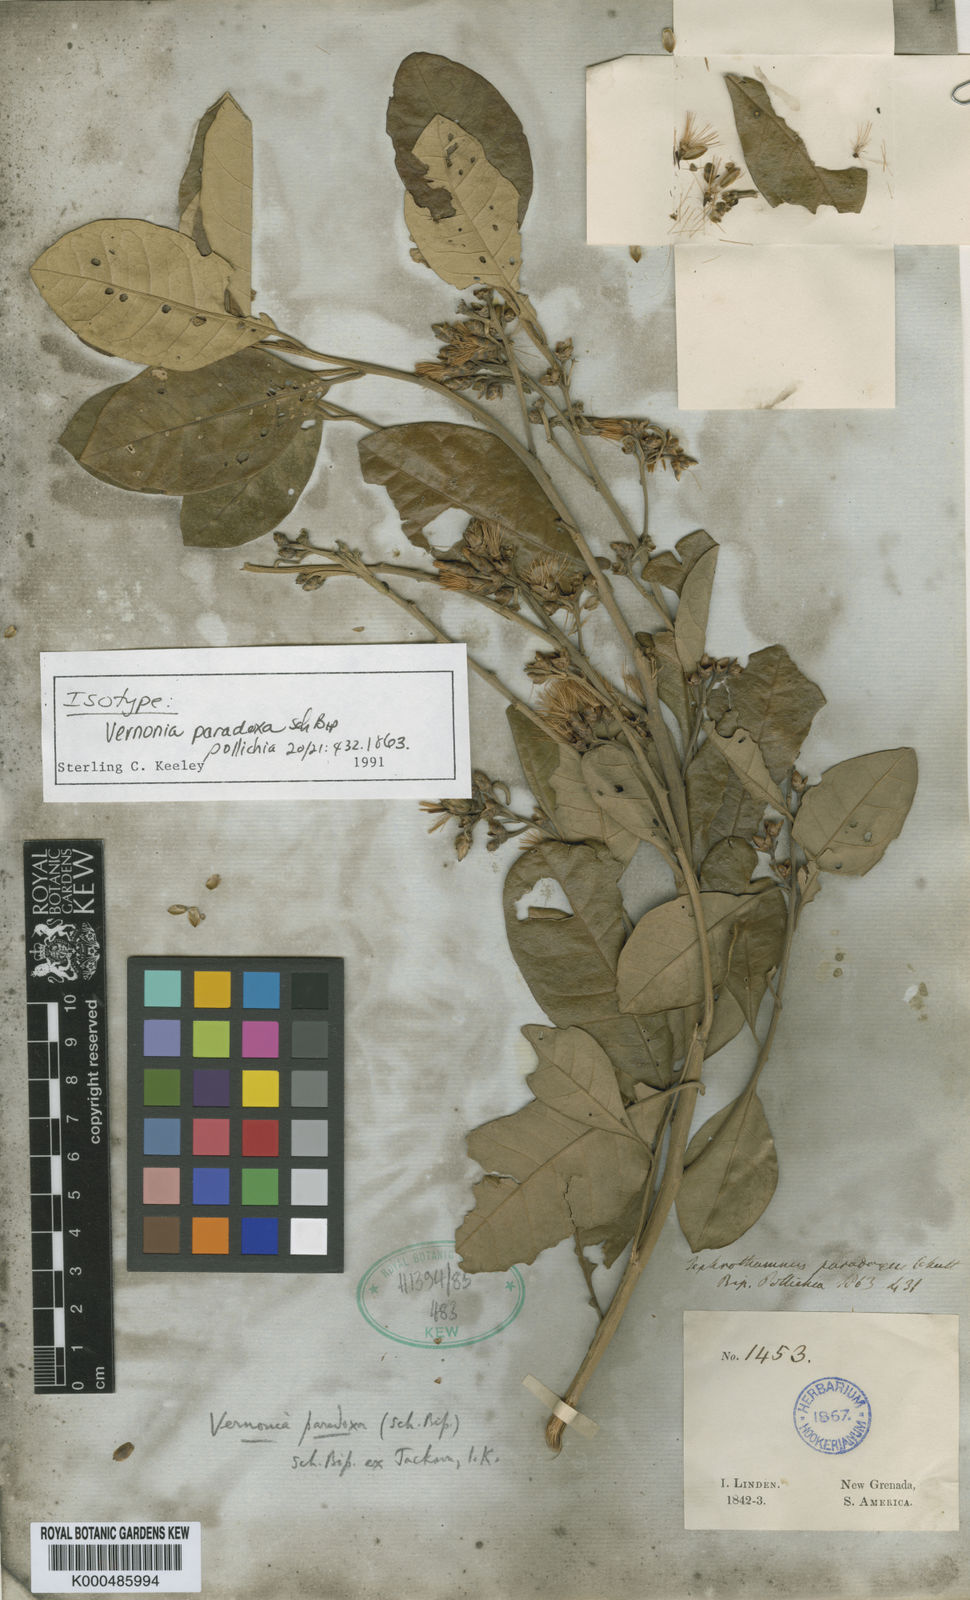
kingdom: Plantae
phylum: Tracheophyta
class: Magnoliopsida
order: Asterales
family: Asteraceae
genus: Critoniopsis
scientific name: Critoniopsis paradoxa
